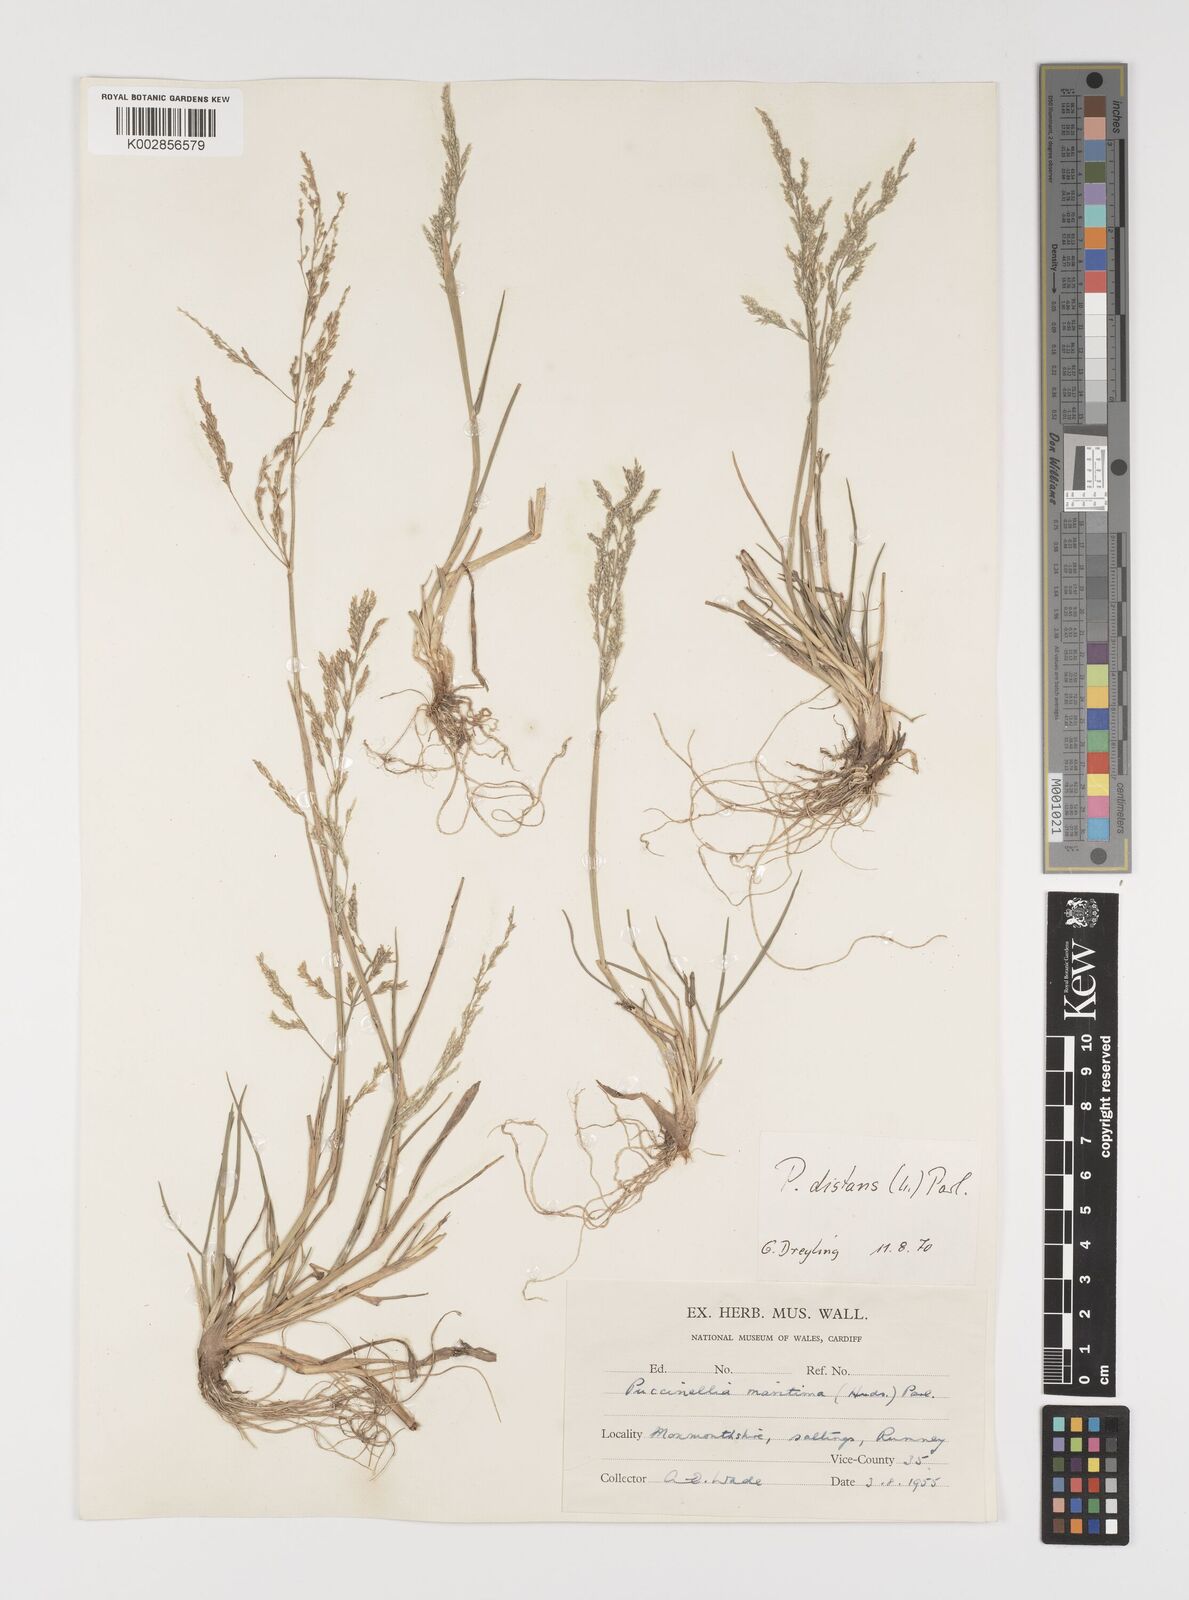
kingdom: Plantae
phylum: Tracheophyta
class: Liliopsida
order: Poales
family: Poaceae
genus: Puccinellia
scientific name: Puccinellia distans
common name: Weeping alkaligrass
